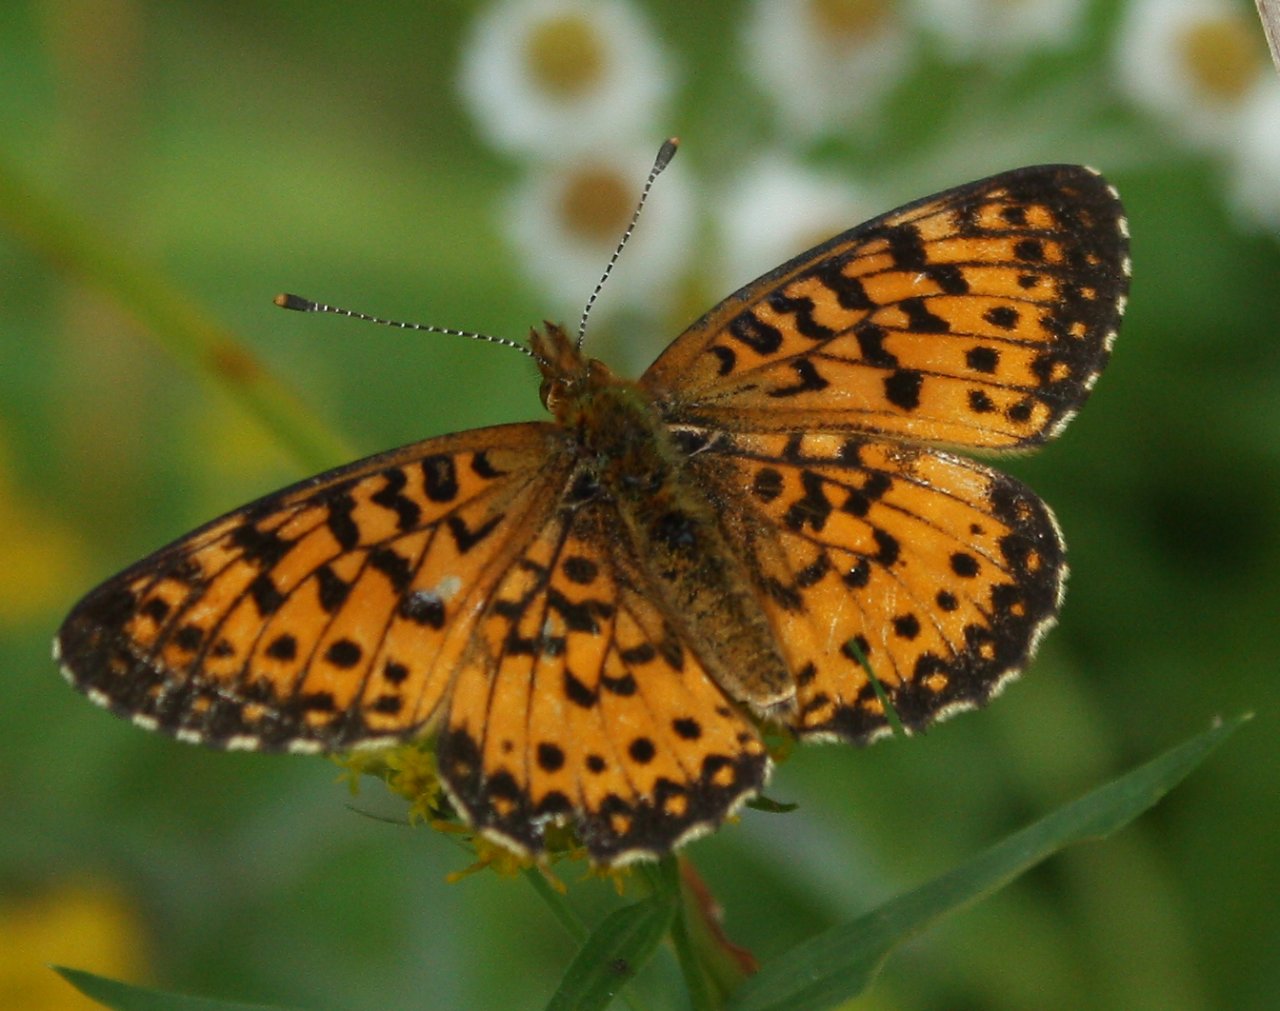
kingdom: Animalia
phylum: Arthropoda
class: Insecta
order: Lepidoptera
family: Nymphalidae
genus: Boloria
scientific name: Boloria selene
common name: Silver-bordered Fritillary
